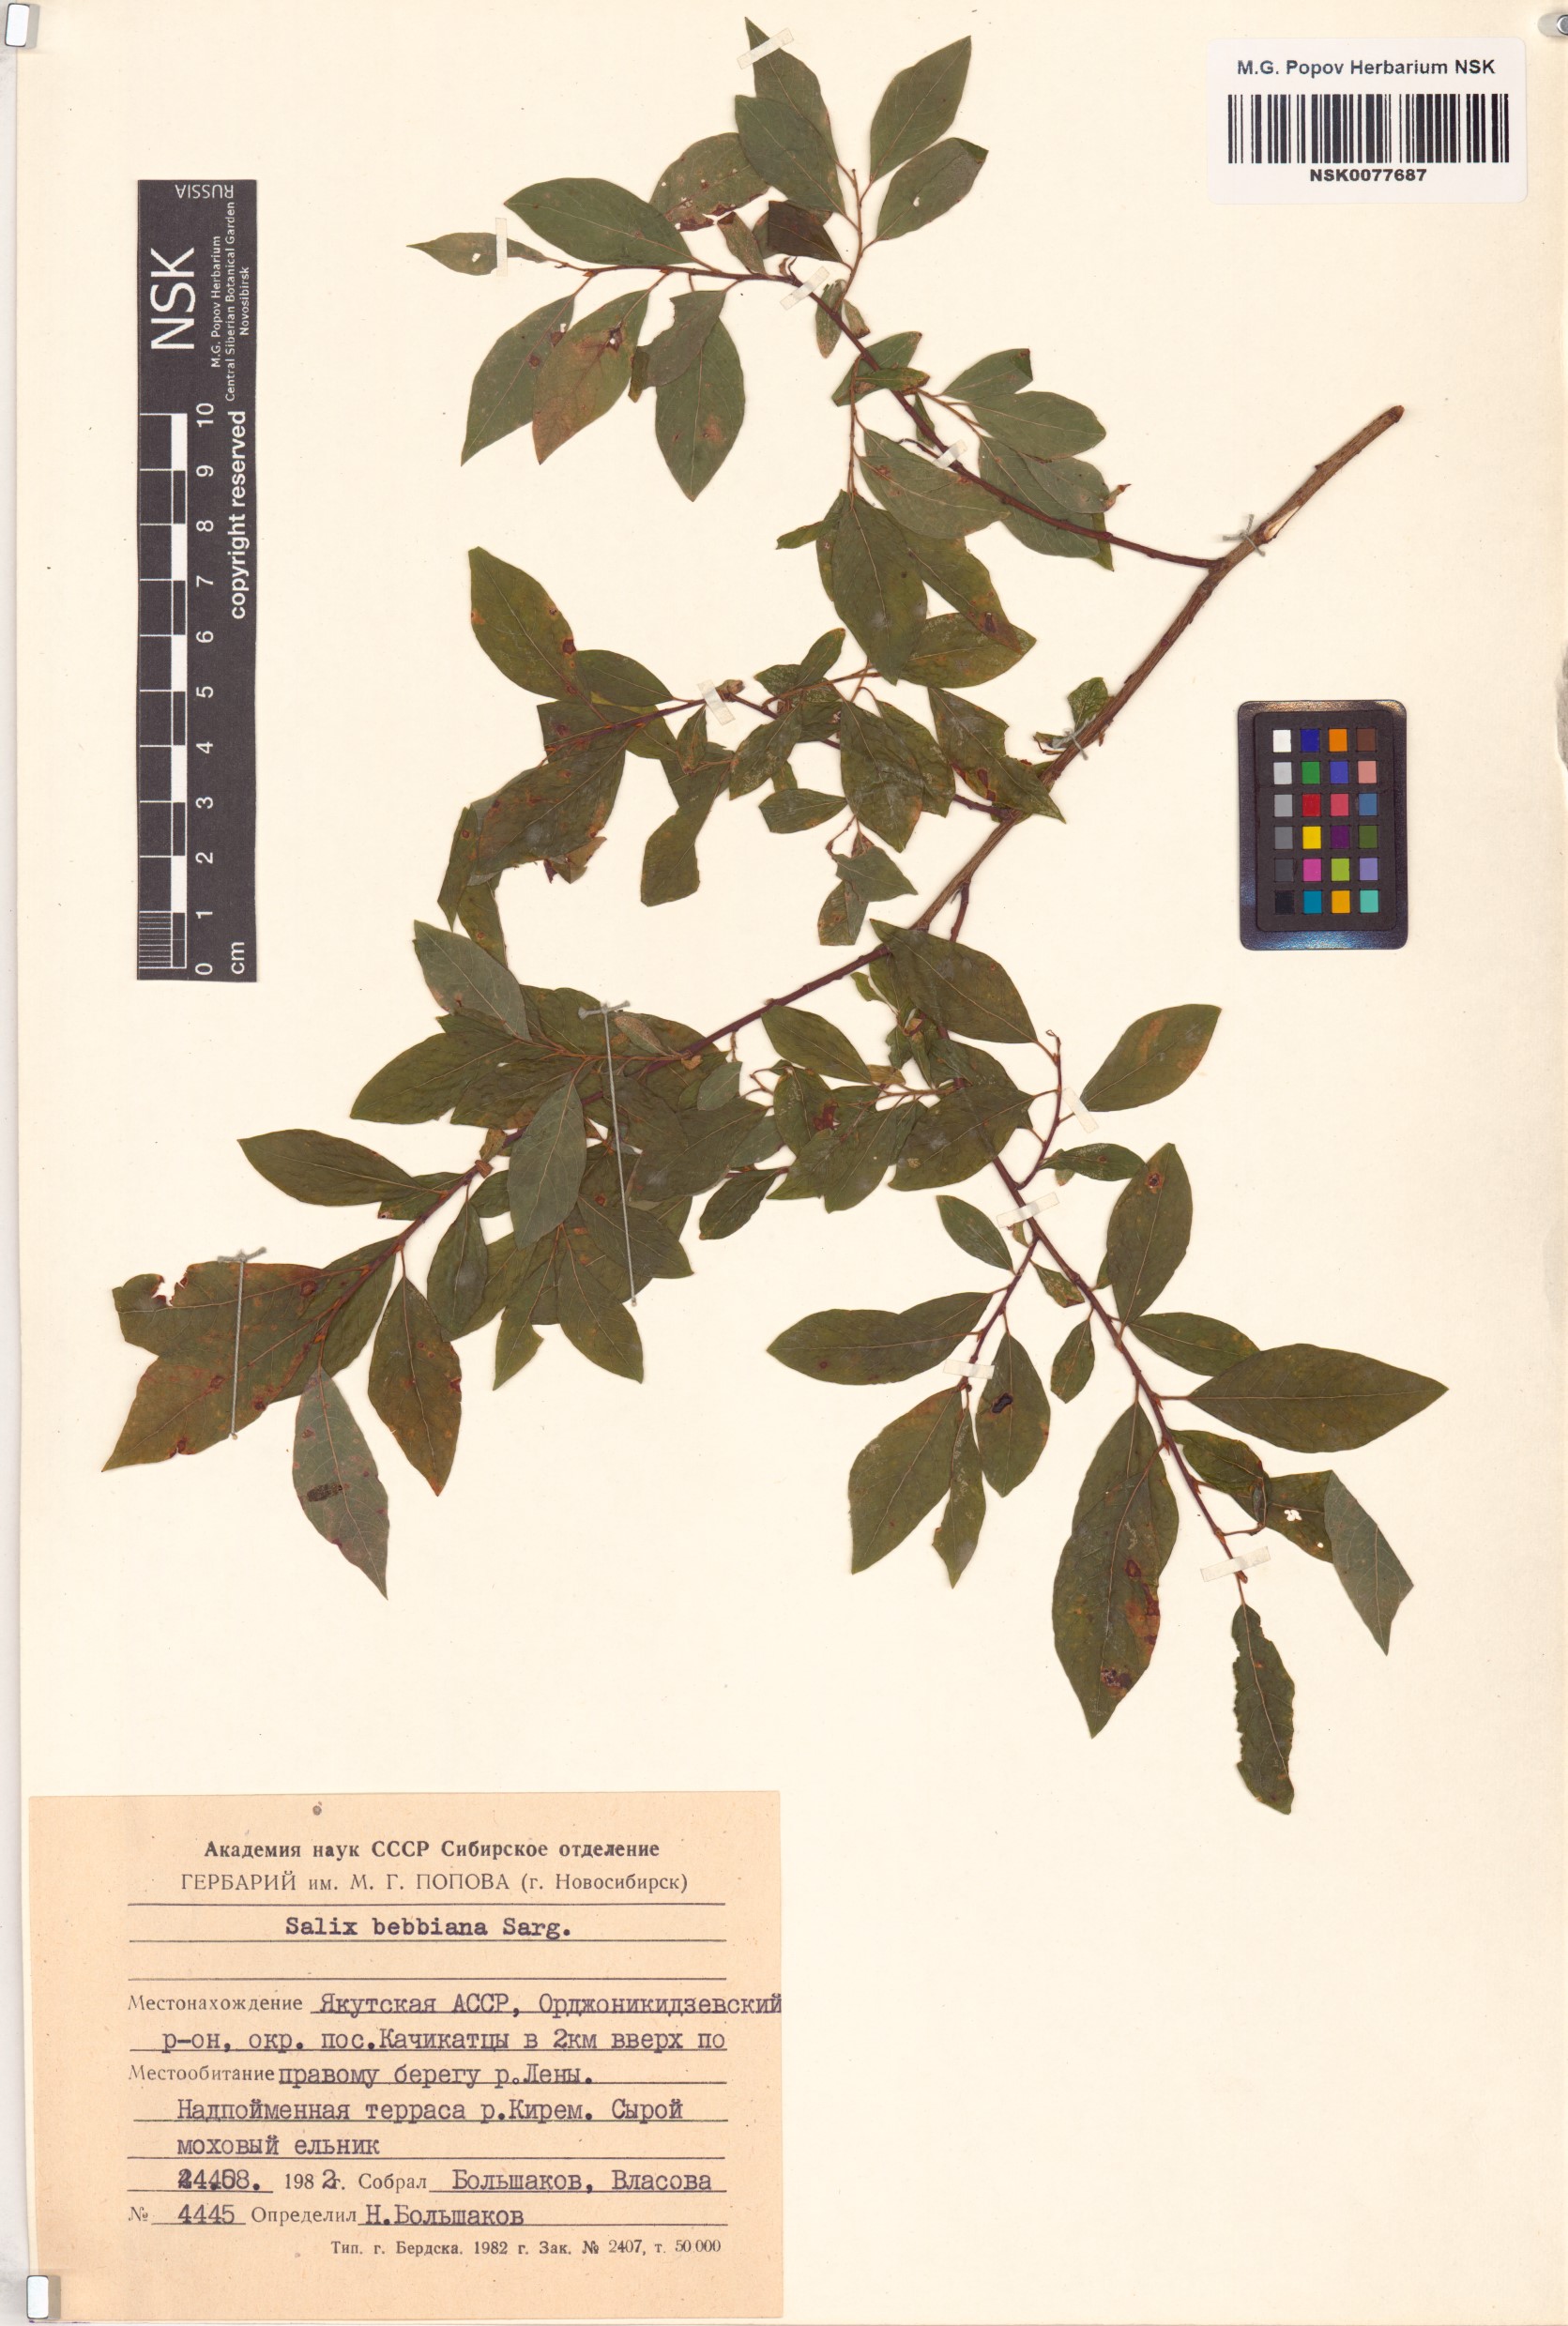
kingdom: Plantae
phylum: Tracheophyta
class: Magnoliopsida
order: Malpighiales
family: Salicaceae
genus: Salix
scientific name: Salix bebbiana
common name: Bebb's willow
